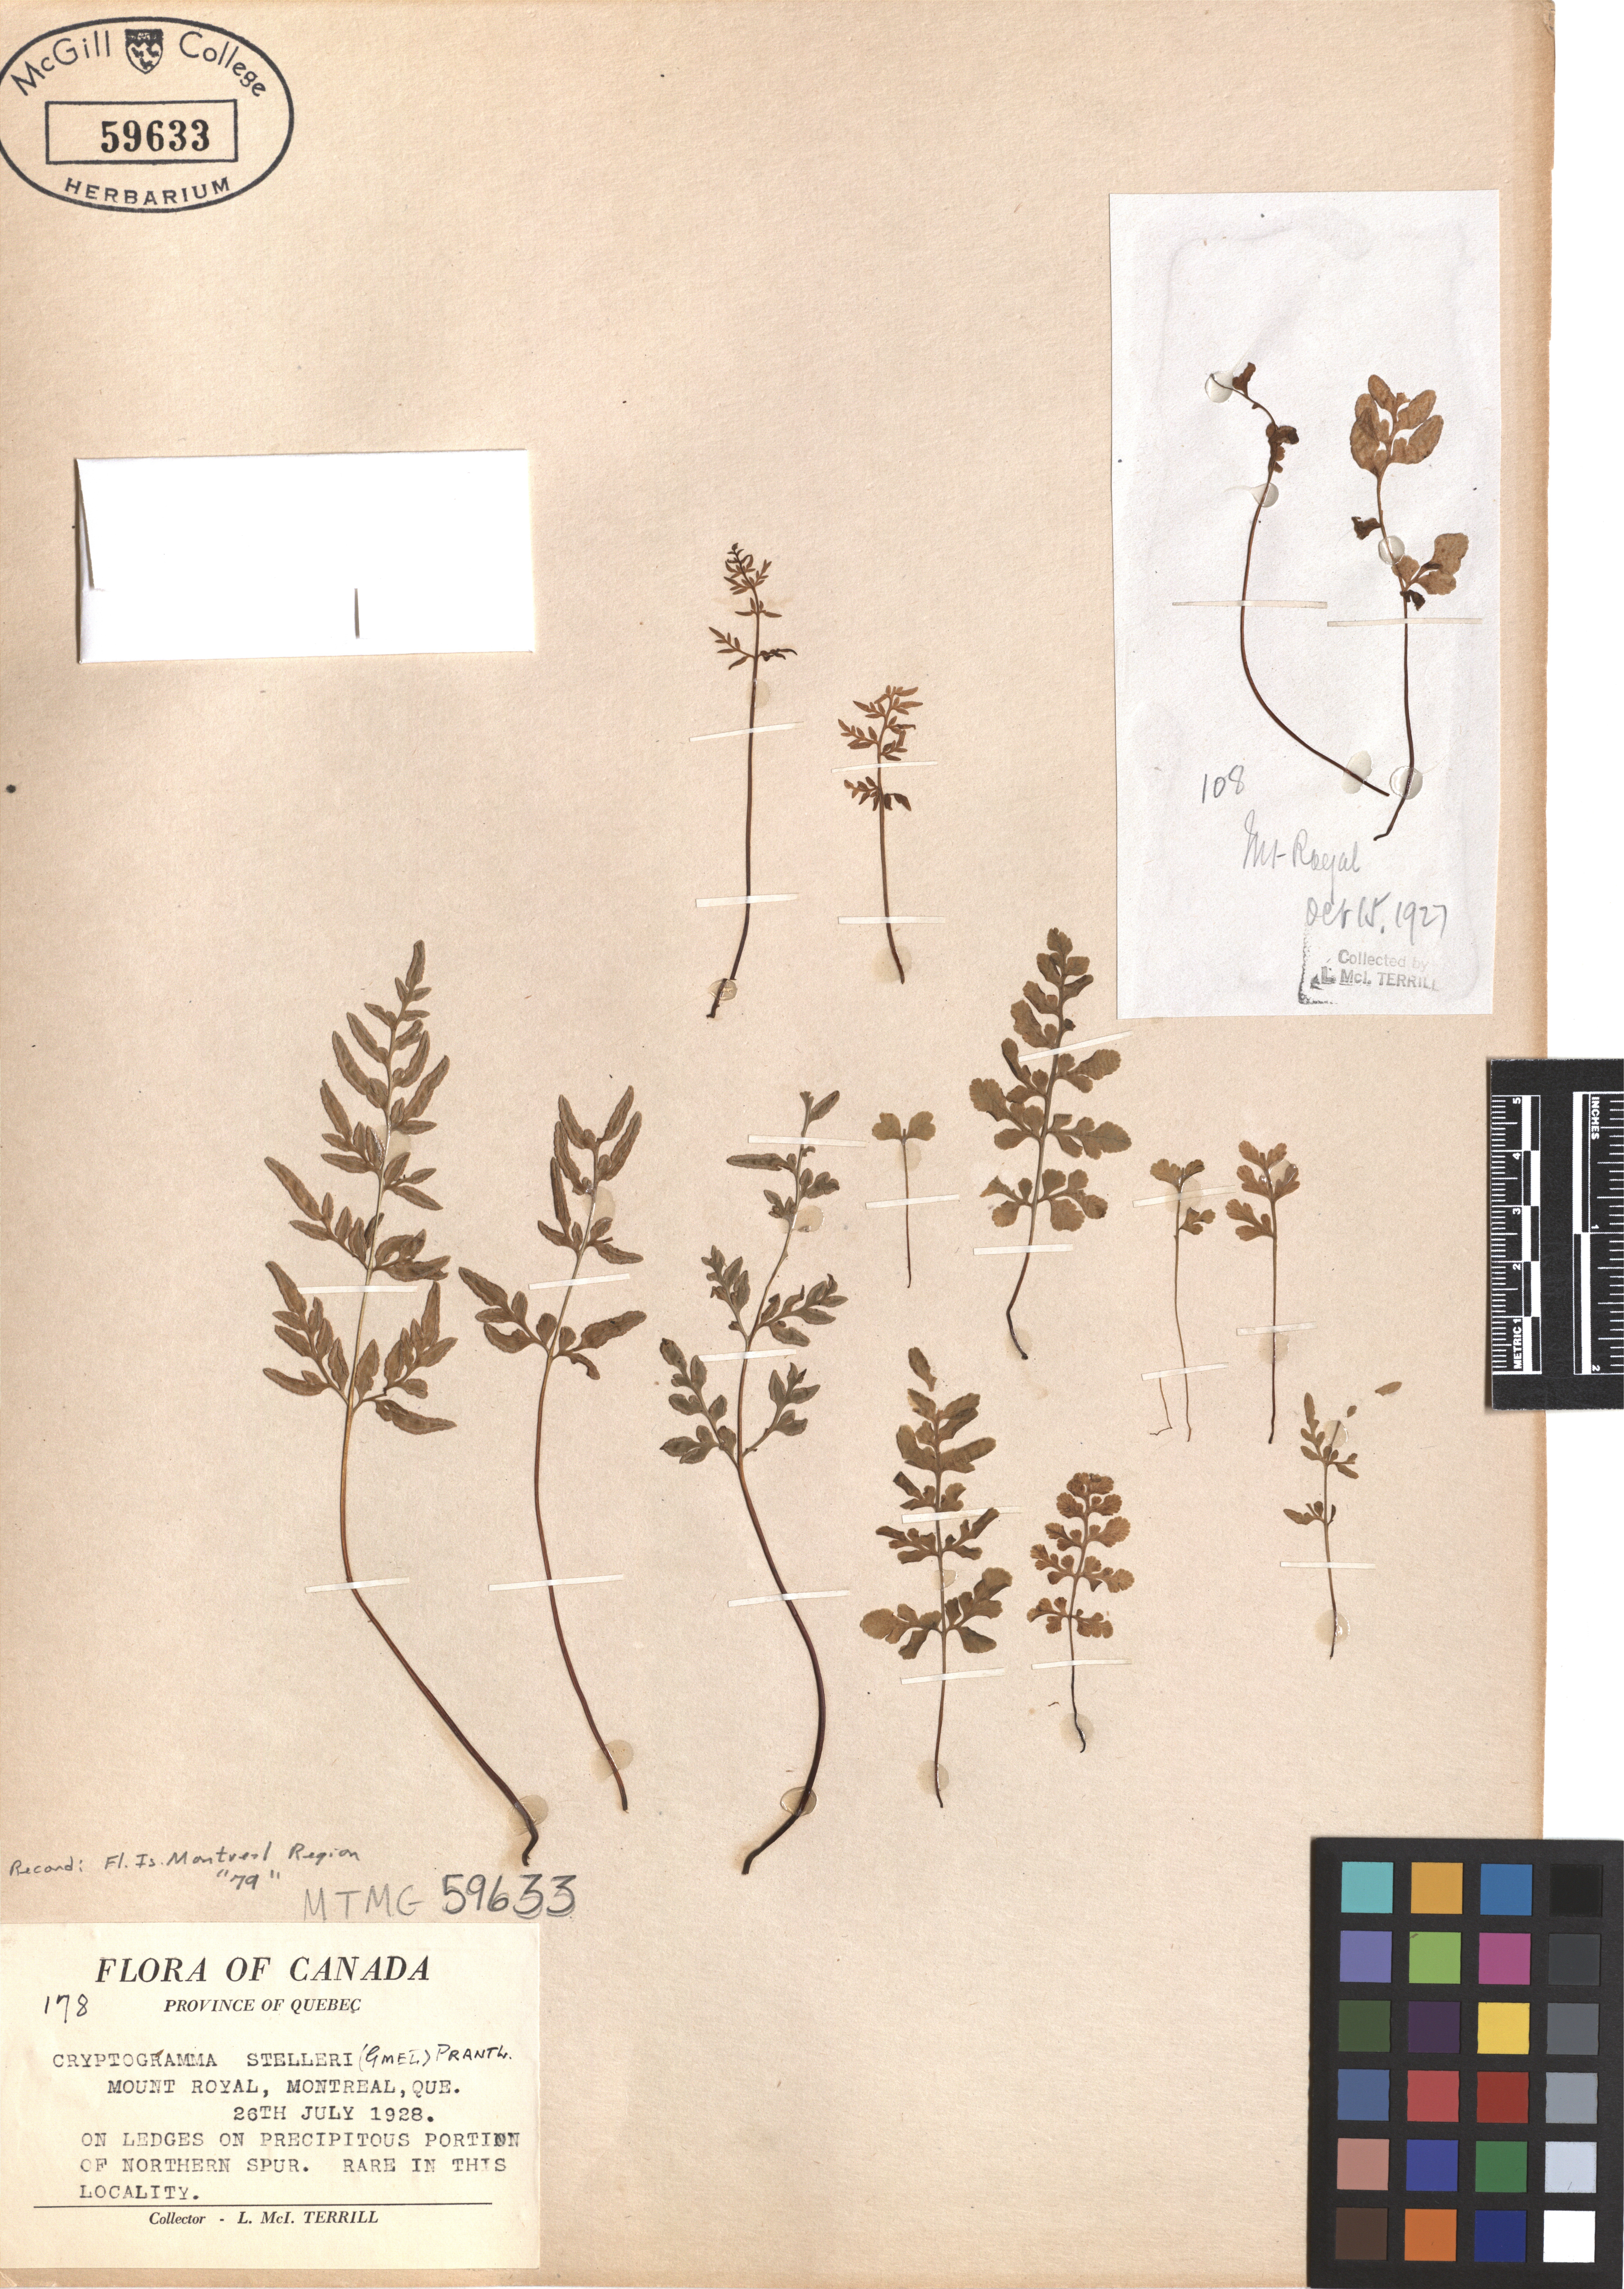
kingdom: Plantae
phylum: Tracheophyta
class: Polypodiopsida
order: Polypodiales
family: Pteridaceae
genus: Cryptogramma
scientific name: Cryptogramma stelleri
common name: Cliff-brake
